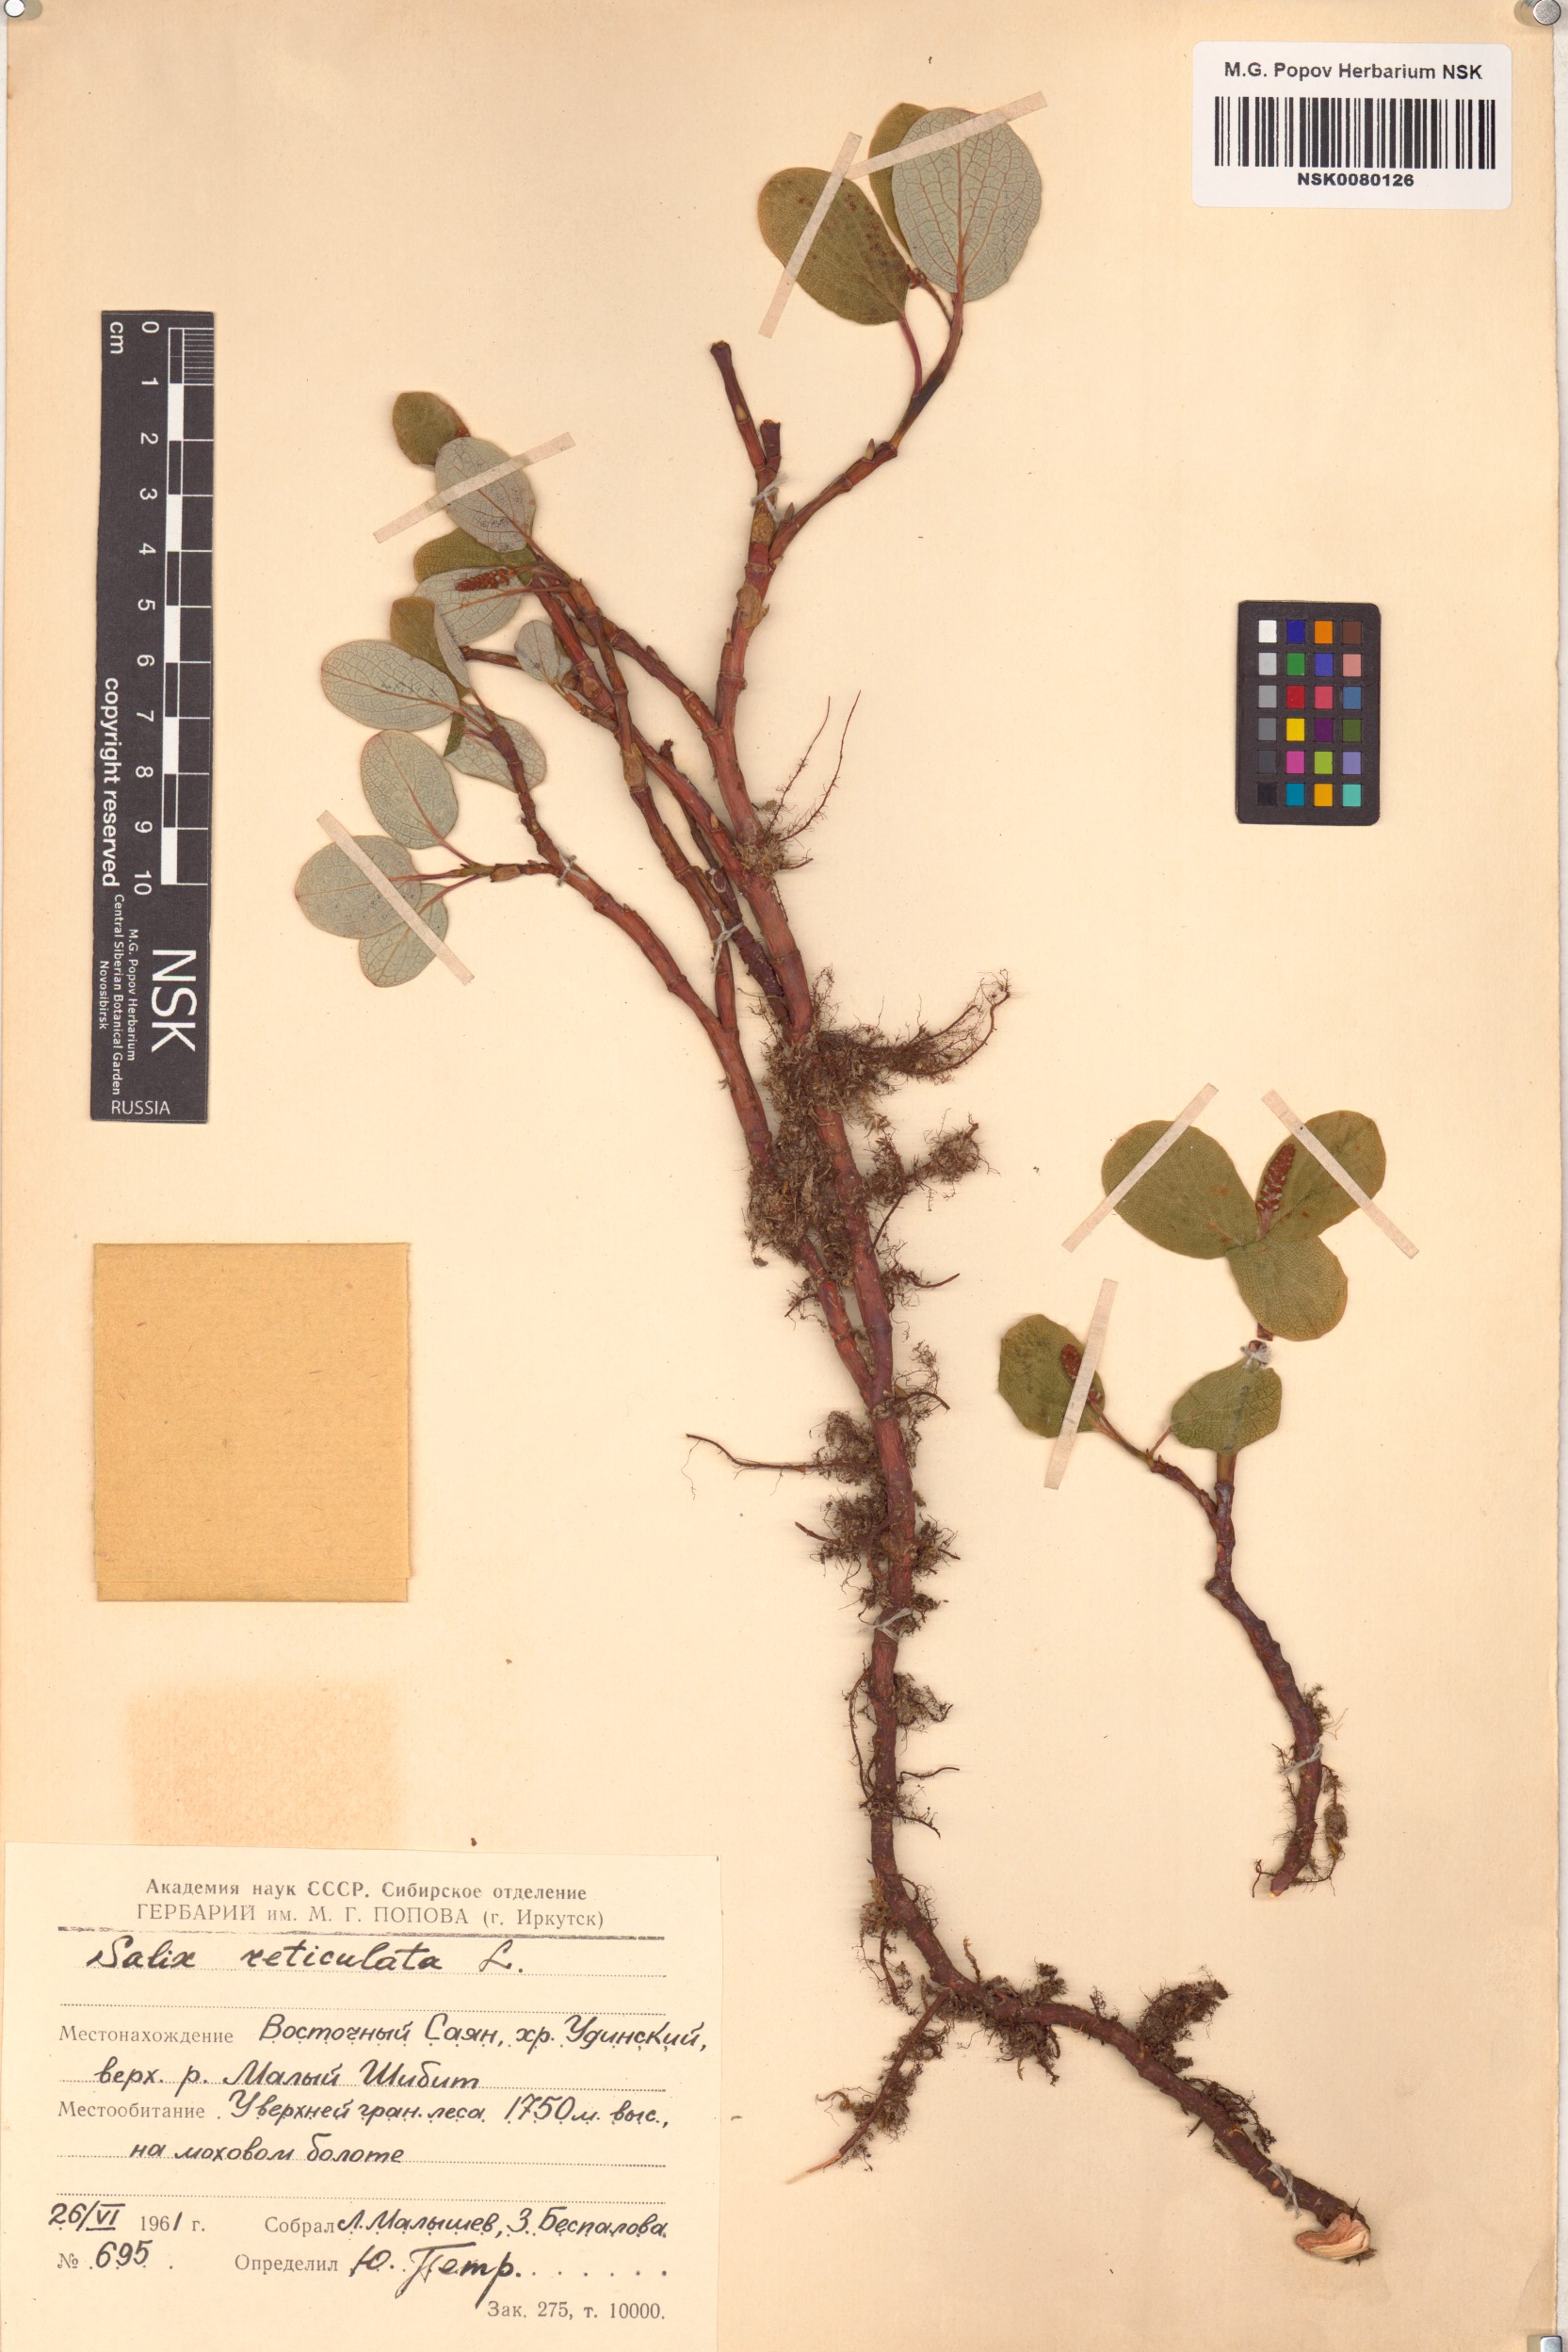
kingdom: Plantae
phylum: Tracheophyta
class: Magnoliopsida
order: Malpighiales
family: Salicaceae
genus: Salix
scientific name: Salix reticulata
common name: Net-leaved willow
